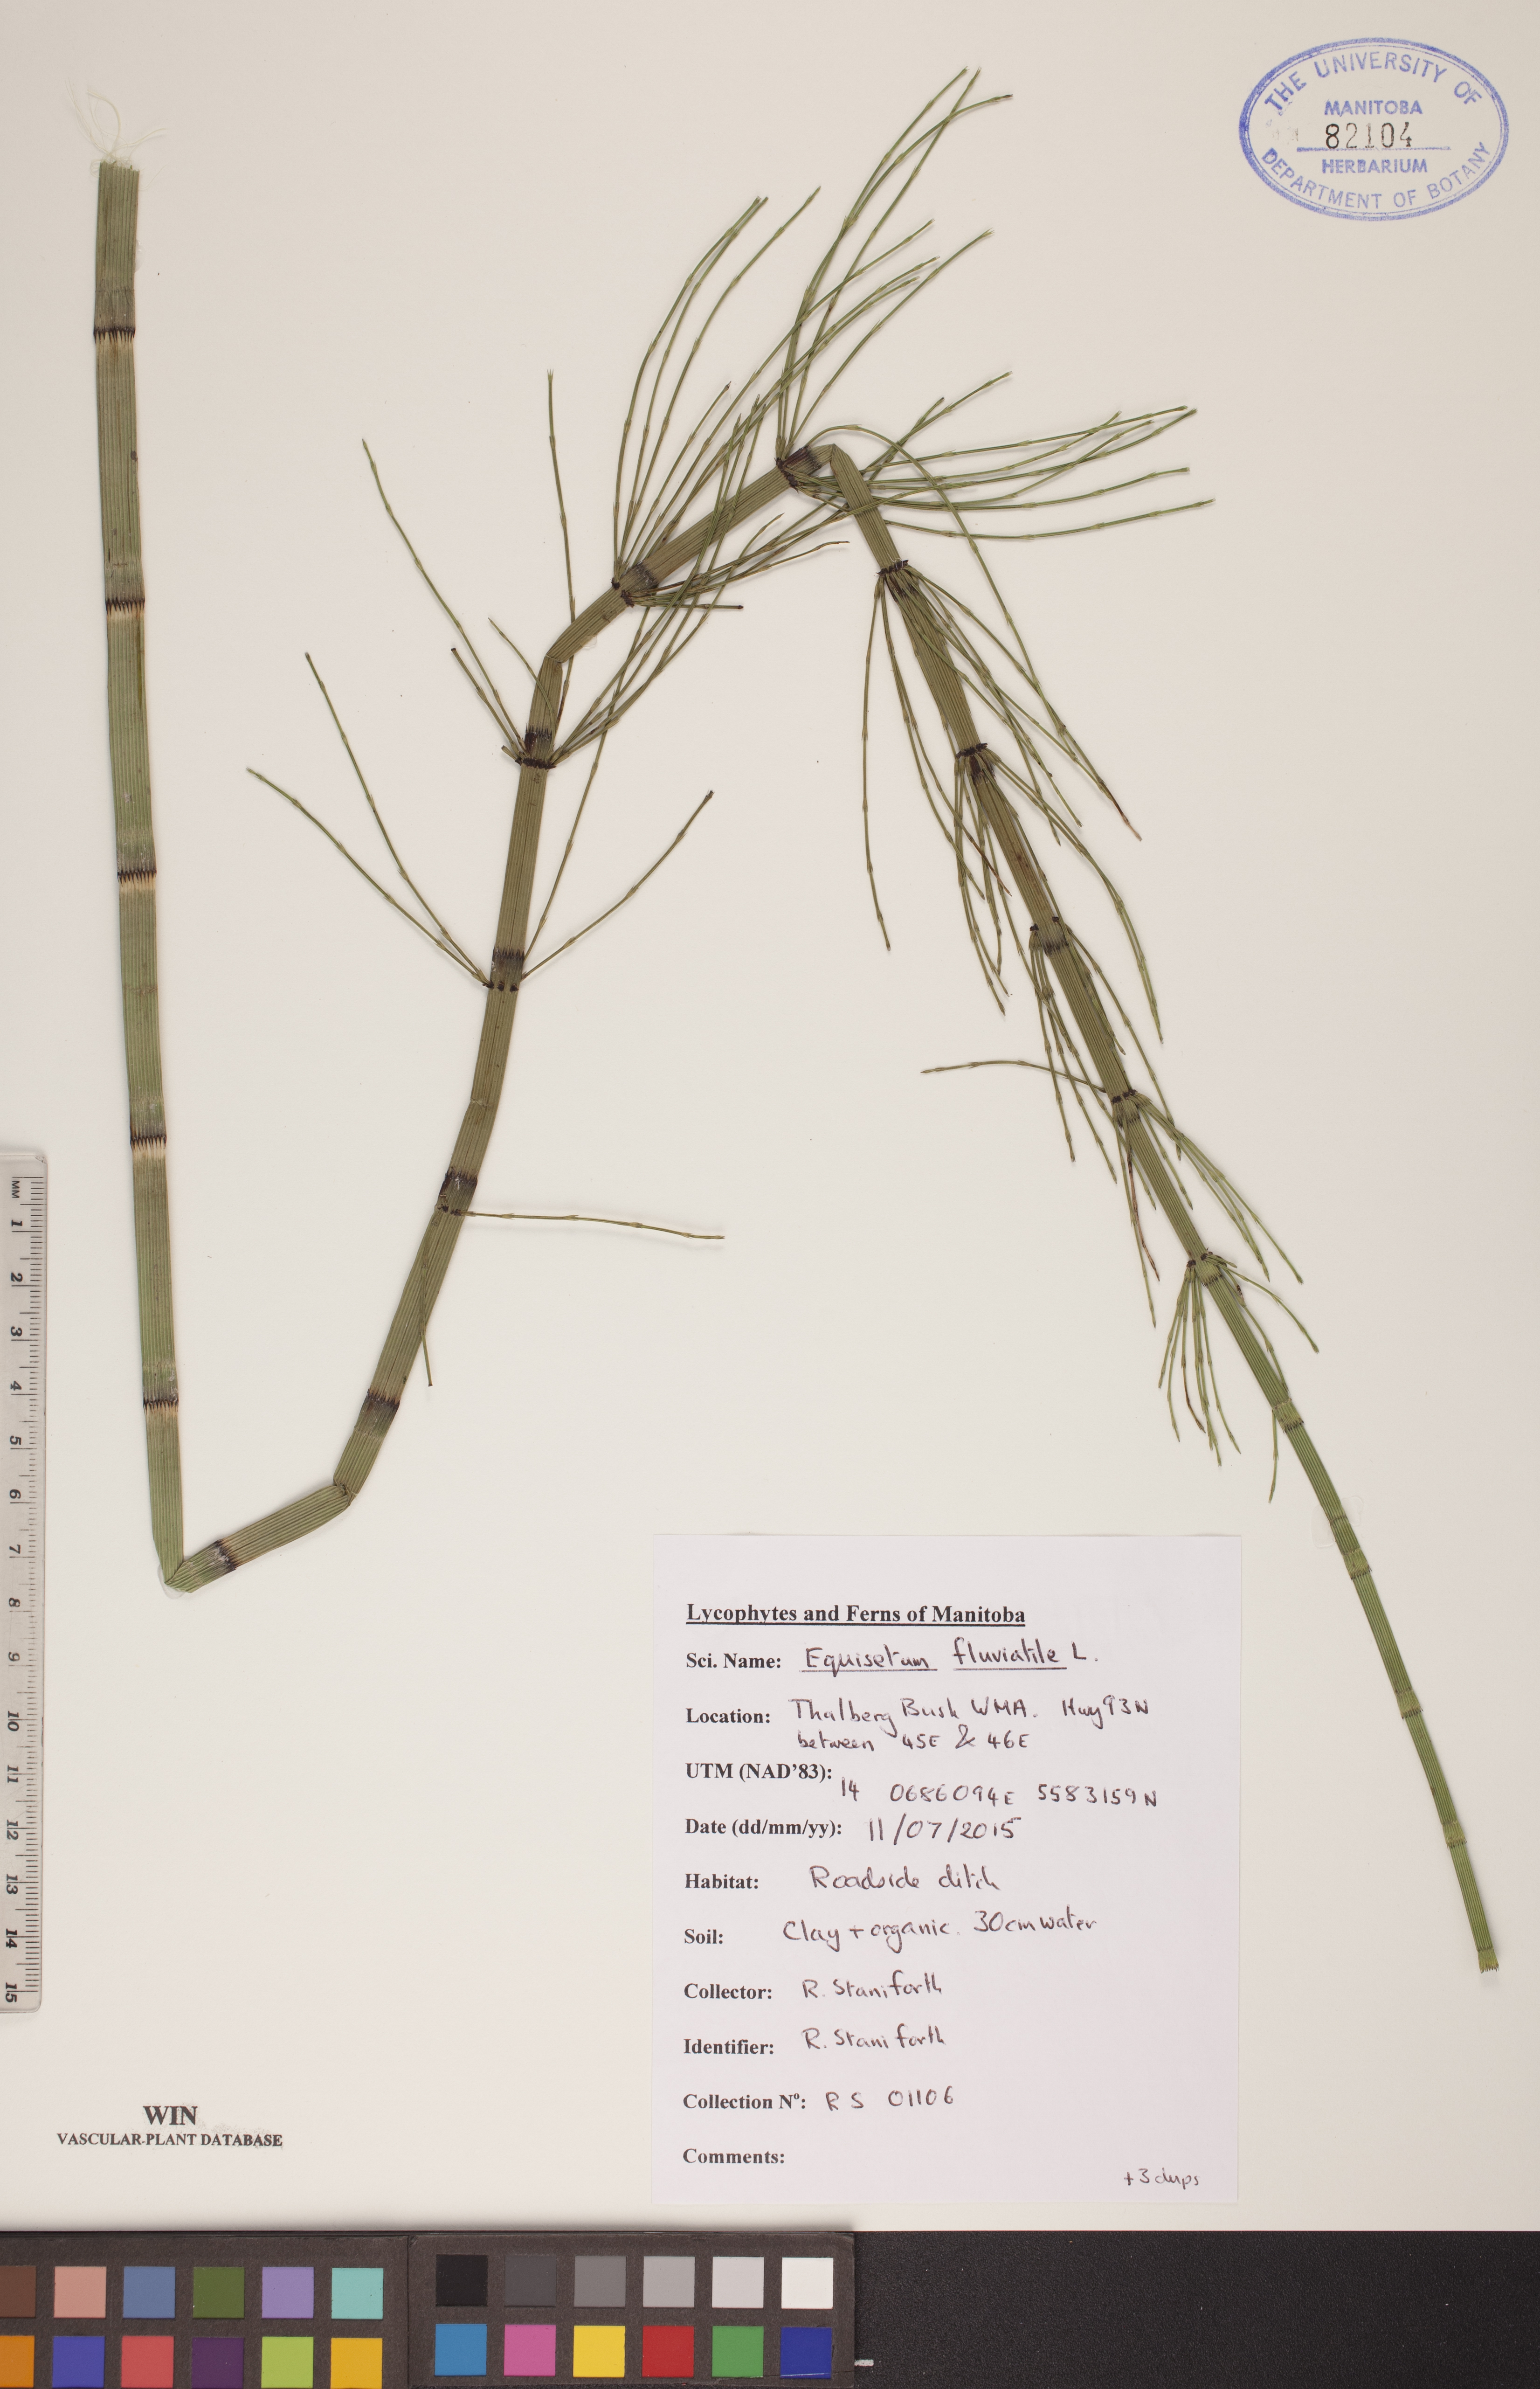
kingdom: Plantae
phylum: Tracheophyta
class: Polypodiopsida
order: Equisetales
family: Equisetaceae
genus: Equisetum
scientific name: Equisetum fluviatile
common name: Water horsetail
